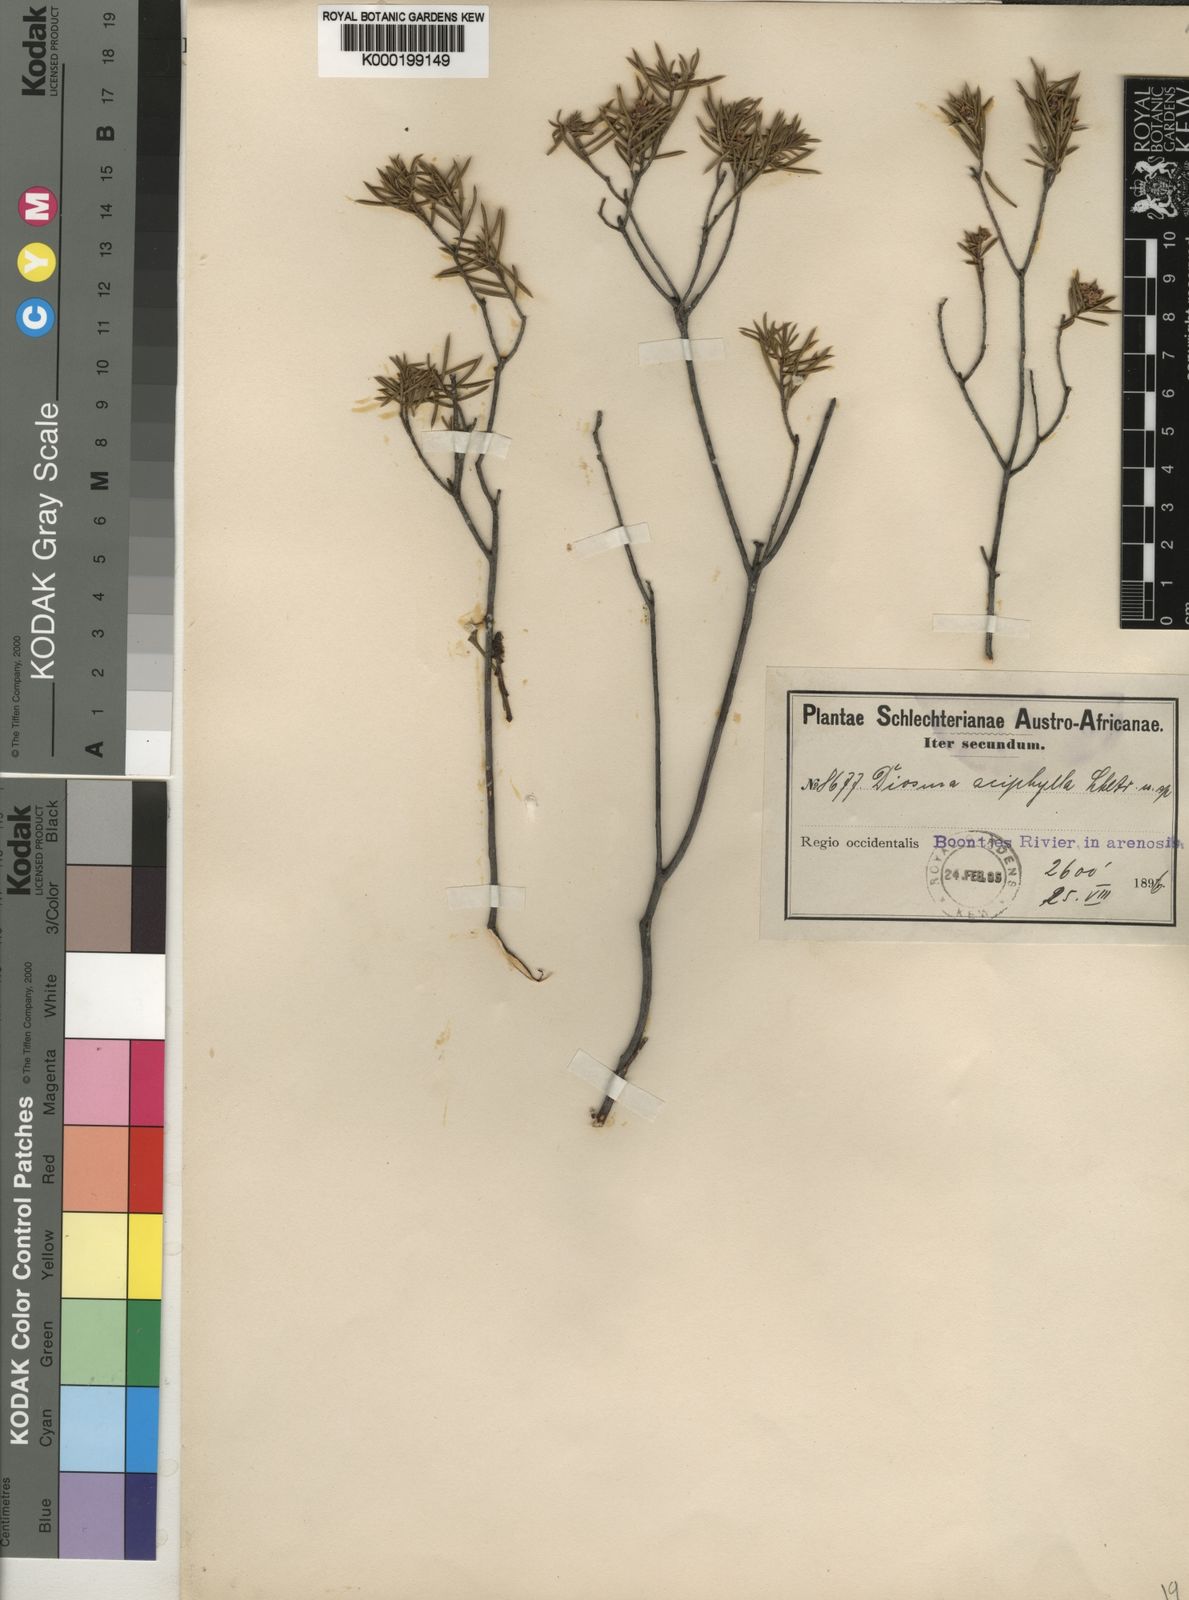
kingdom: Plantae
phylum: Tracheophyta
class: Magnoliopsida
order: Sapindales
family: Rutaceae
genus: Diosma
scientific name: Diosma acmaeophylla
